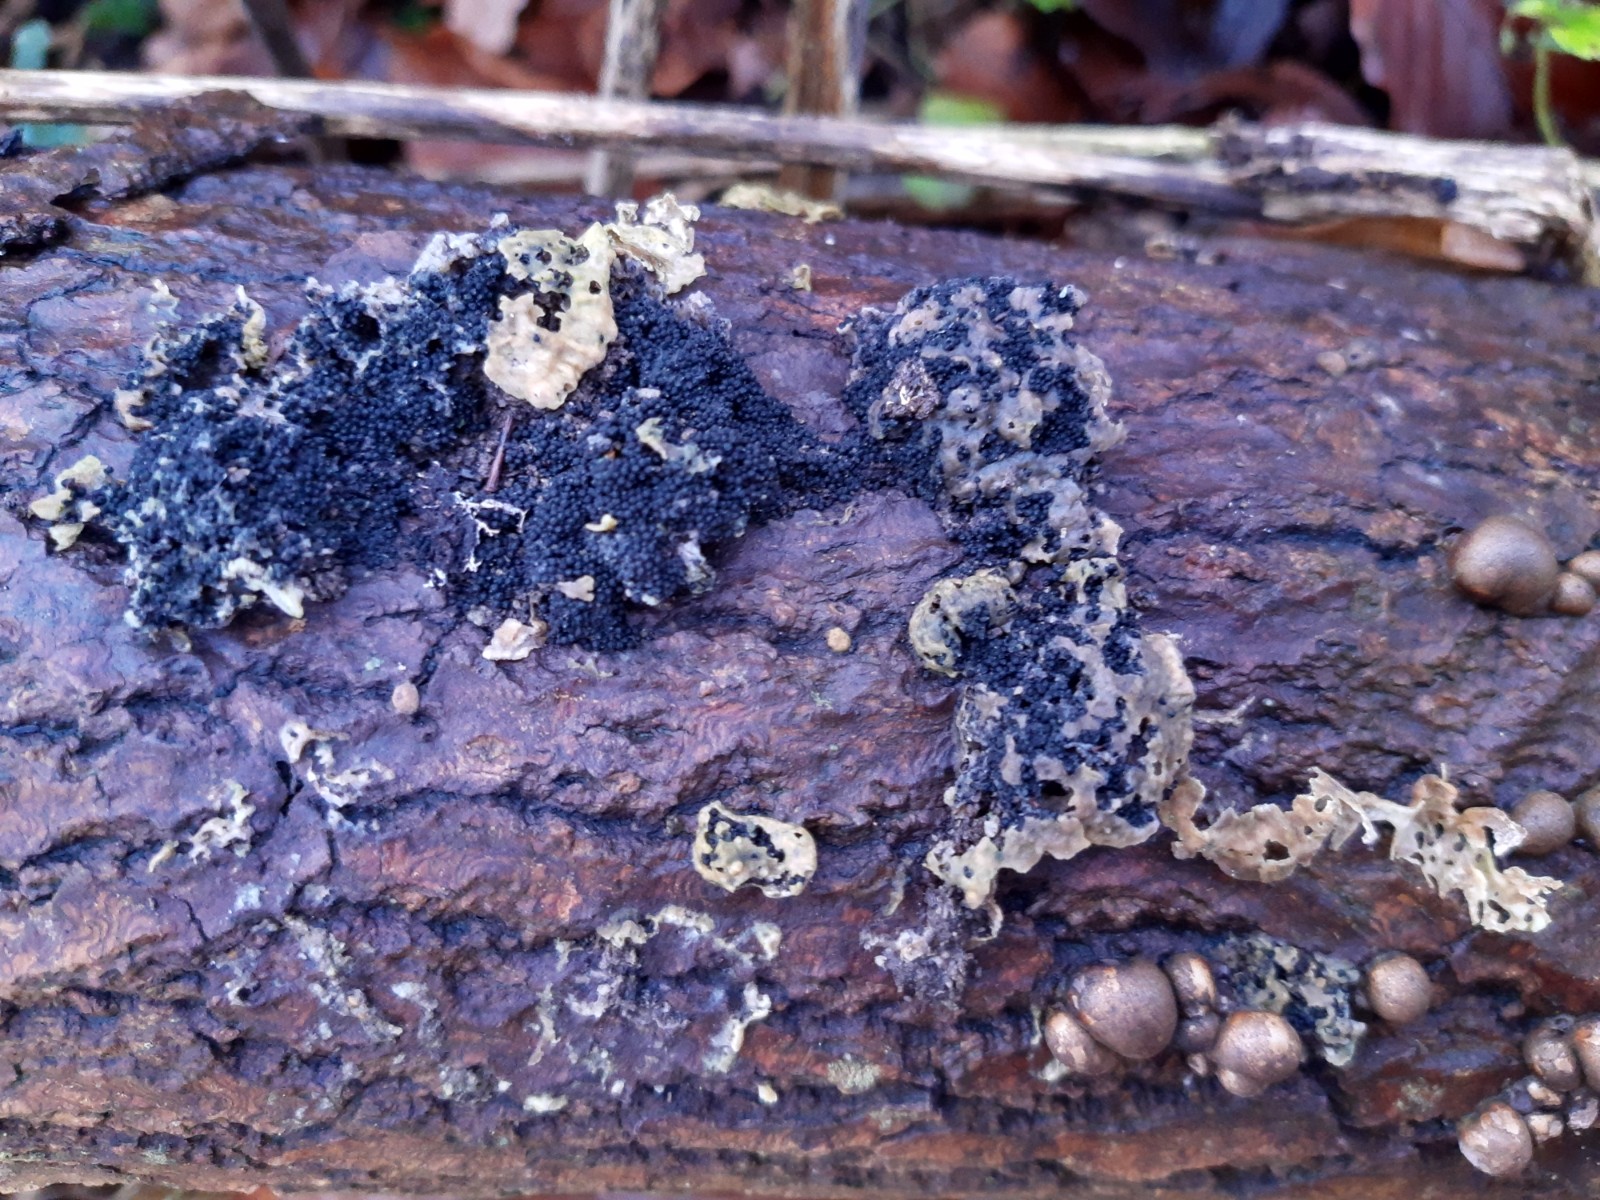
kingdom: Fungi
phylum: Ascomycota
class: Sordariomycetes
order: Sordariales
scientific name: Sordariales
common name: kernesvampordenen
